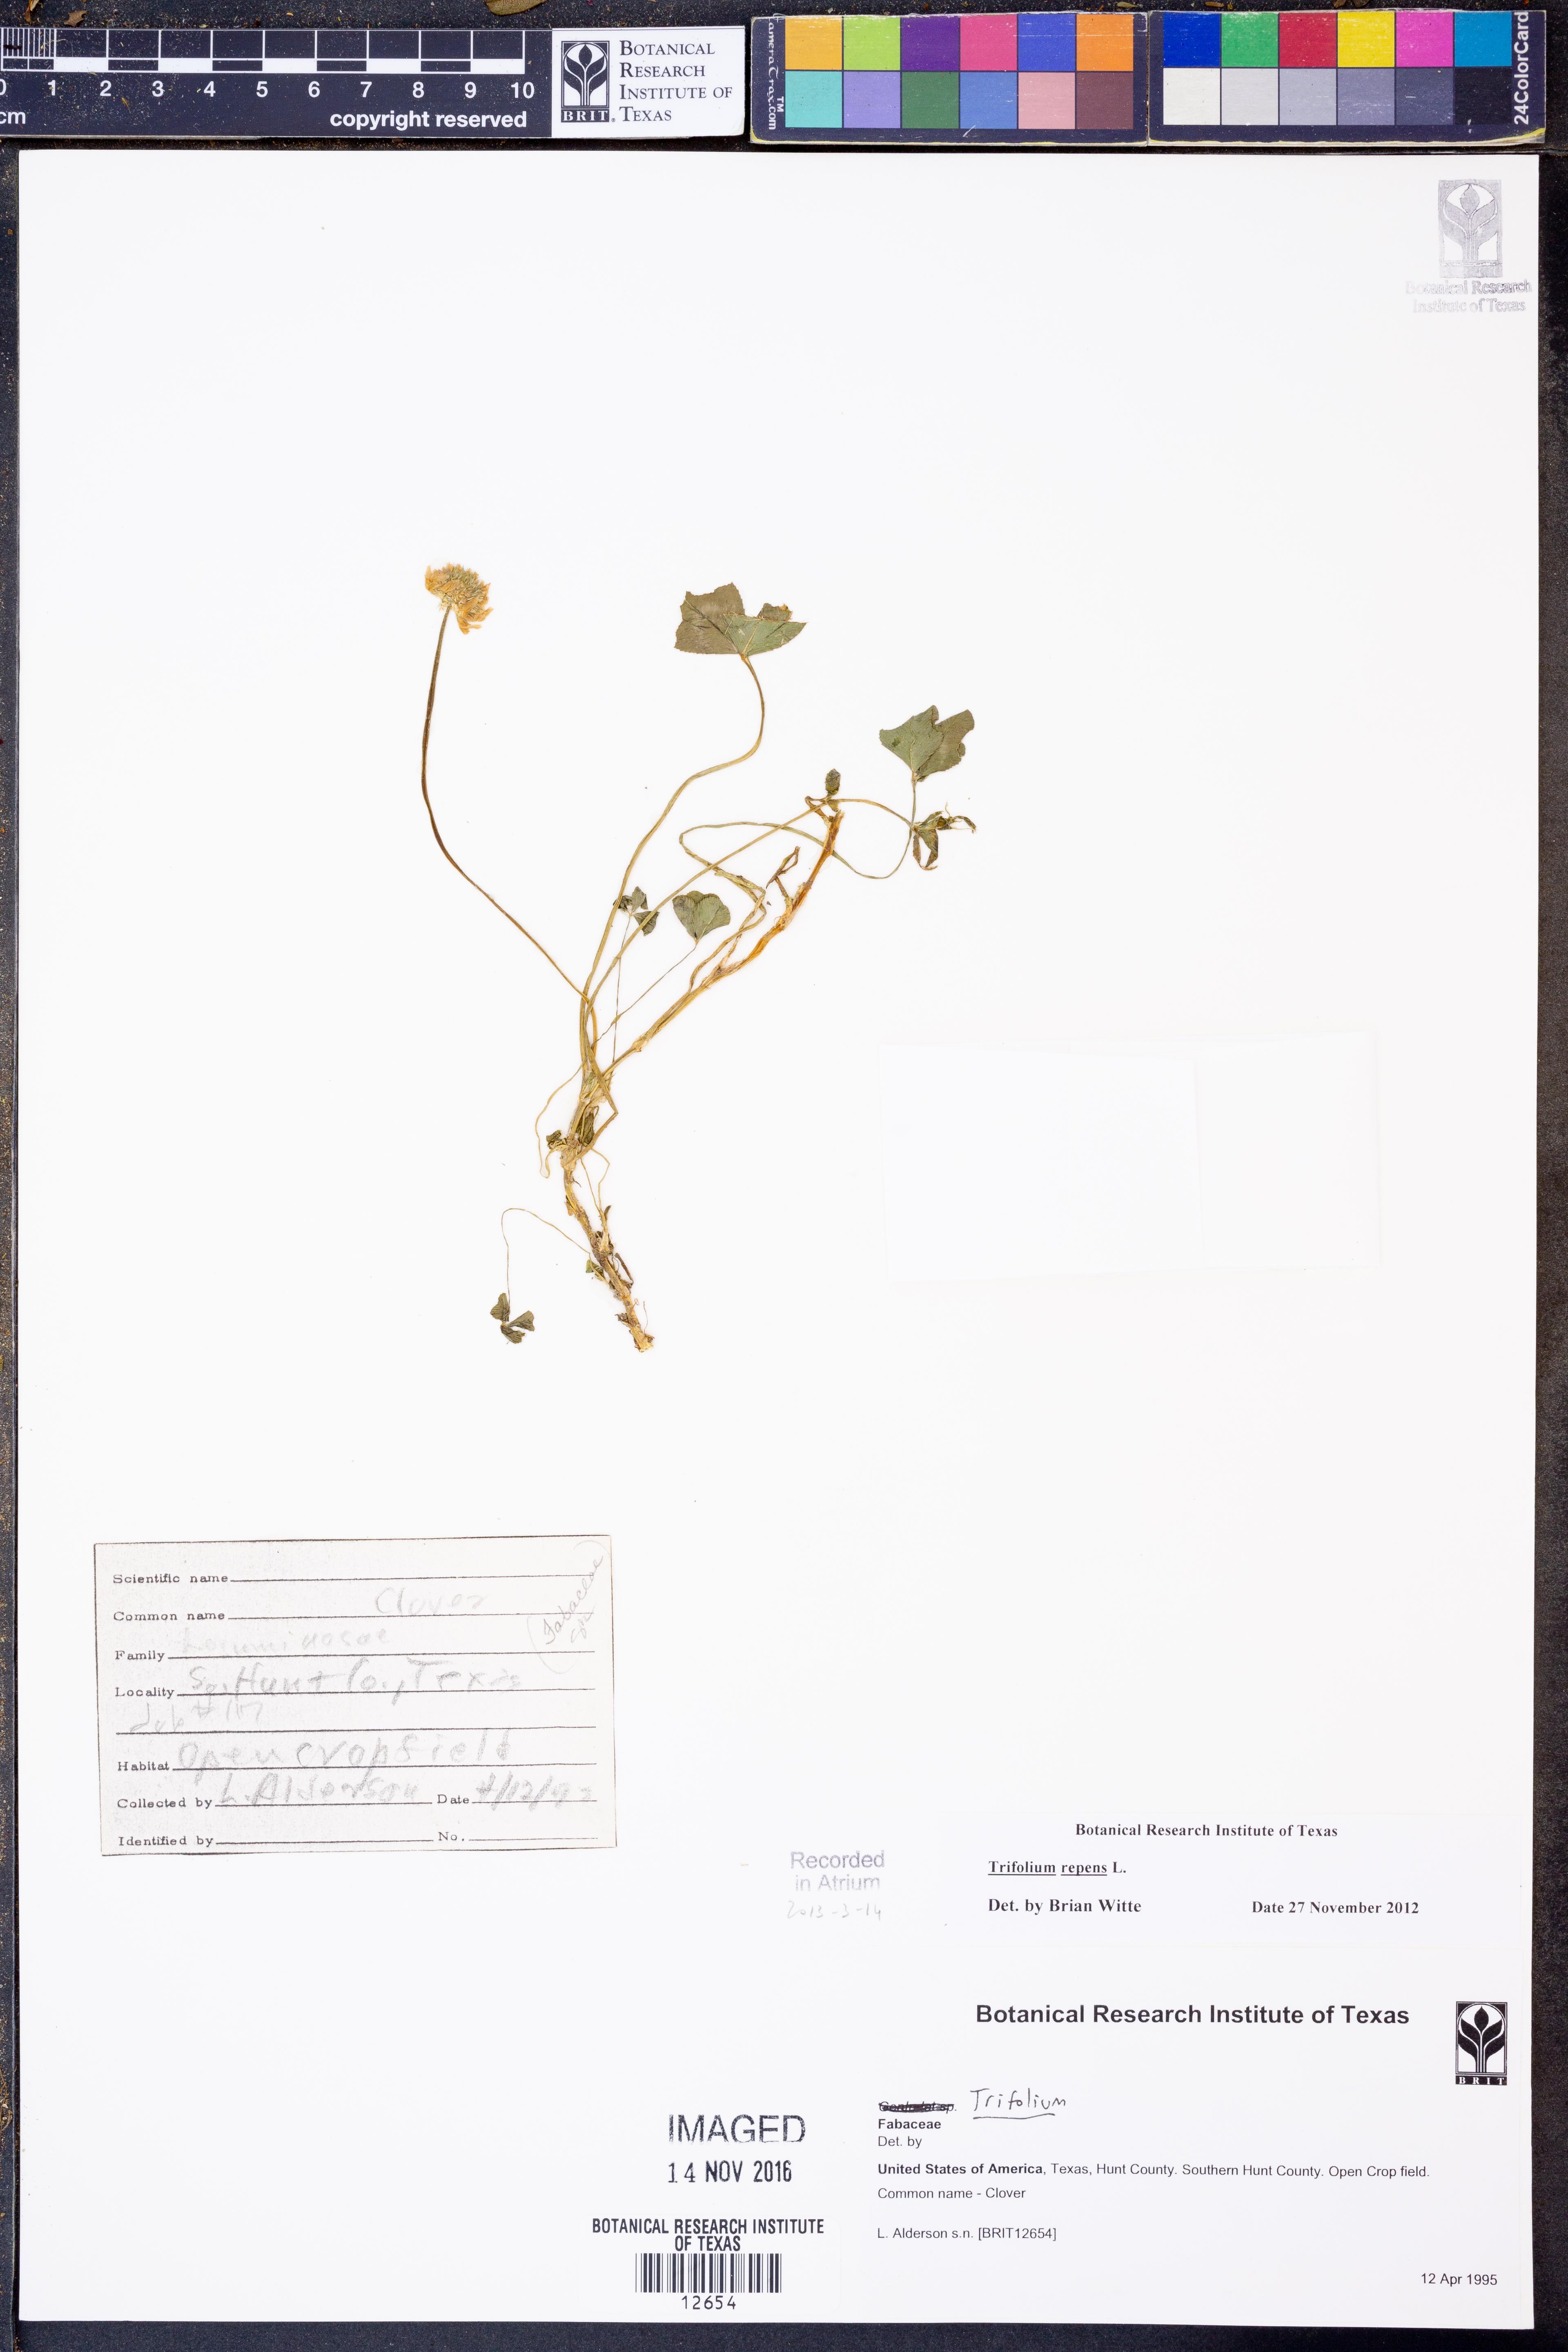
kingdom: Plantae
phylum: Tracheophyta
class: Magnoliopsida
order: Fabales
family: Fabaceae
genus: Trifolium
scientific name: Trifolium repens
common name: White clover
